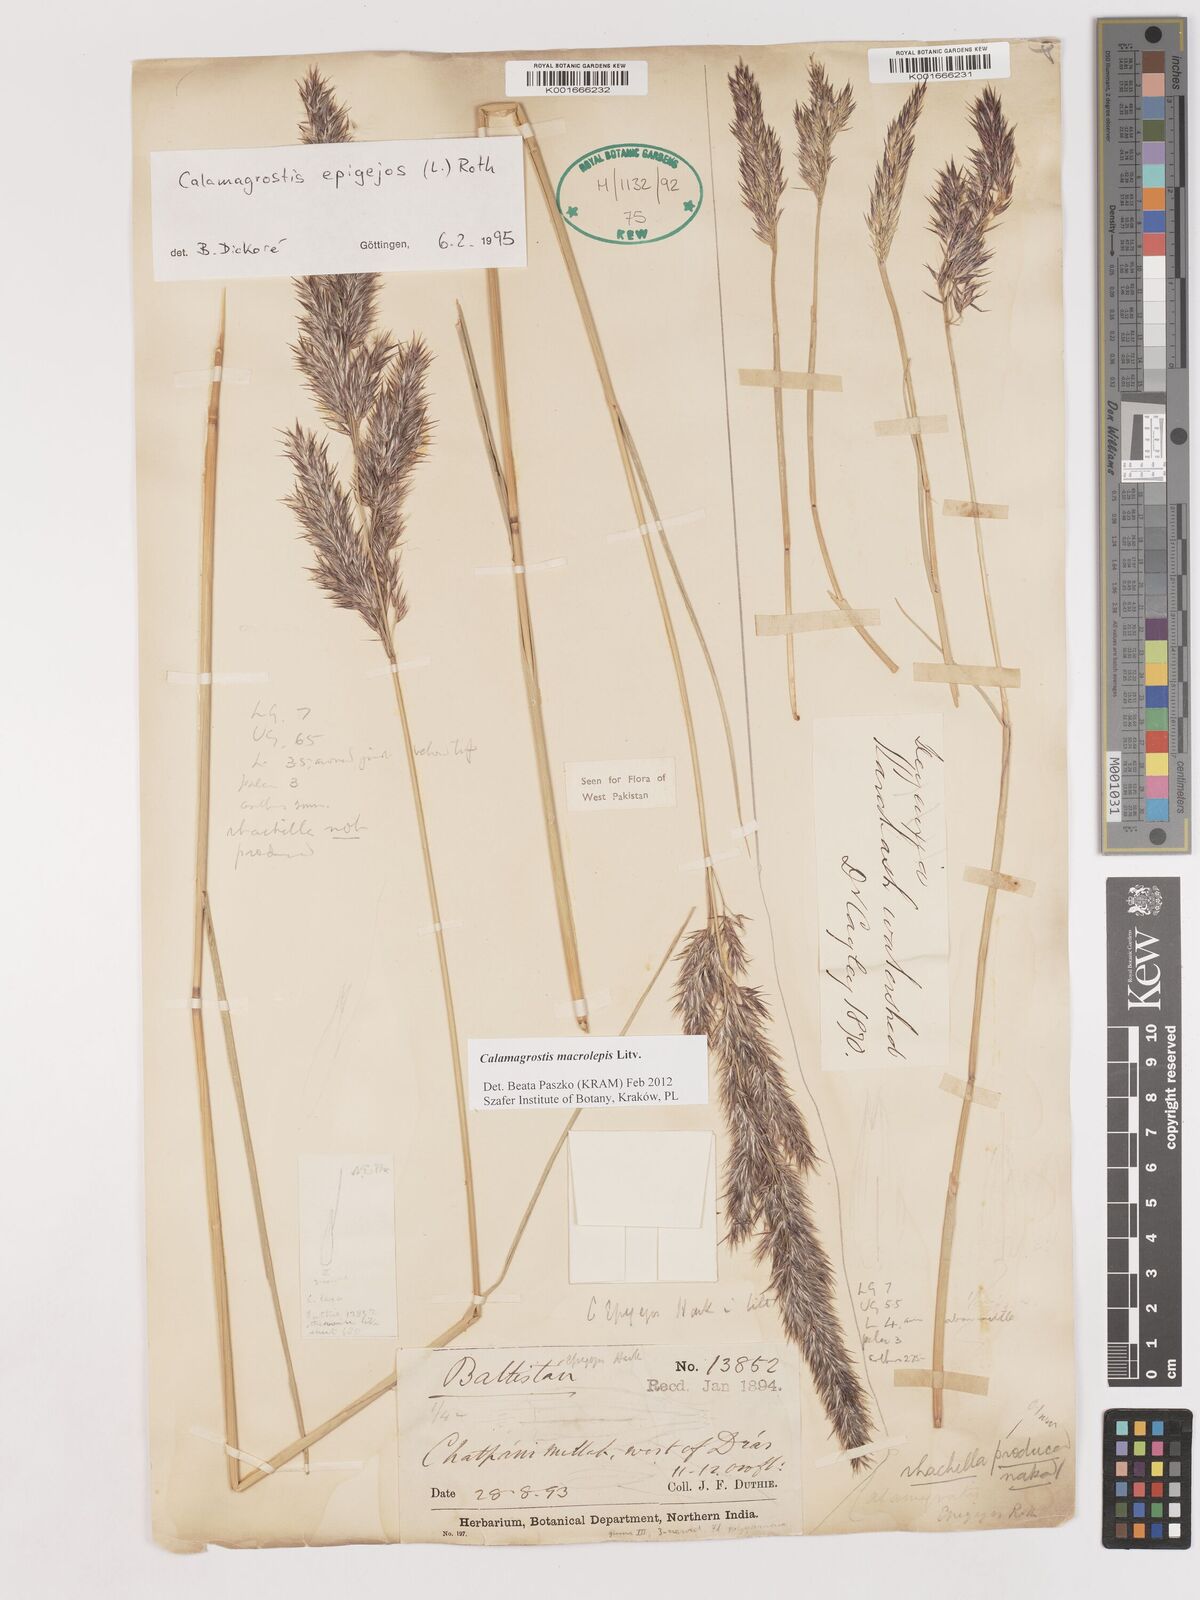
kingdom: Plantae
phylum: Tracheophyta
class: Liliopsida
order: Poales
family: Poaceae
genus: Calamagrostis
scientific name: Calamagrostis epigejos
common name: Wood small-reed
